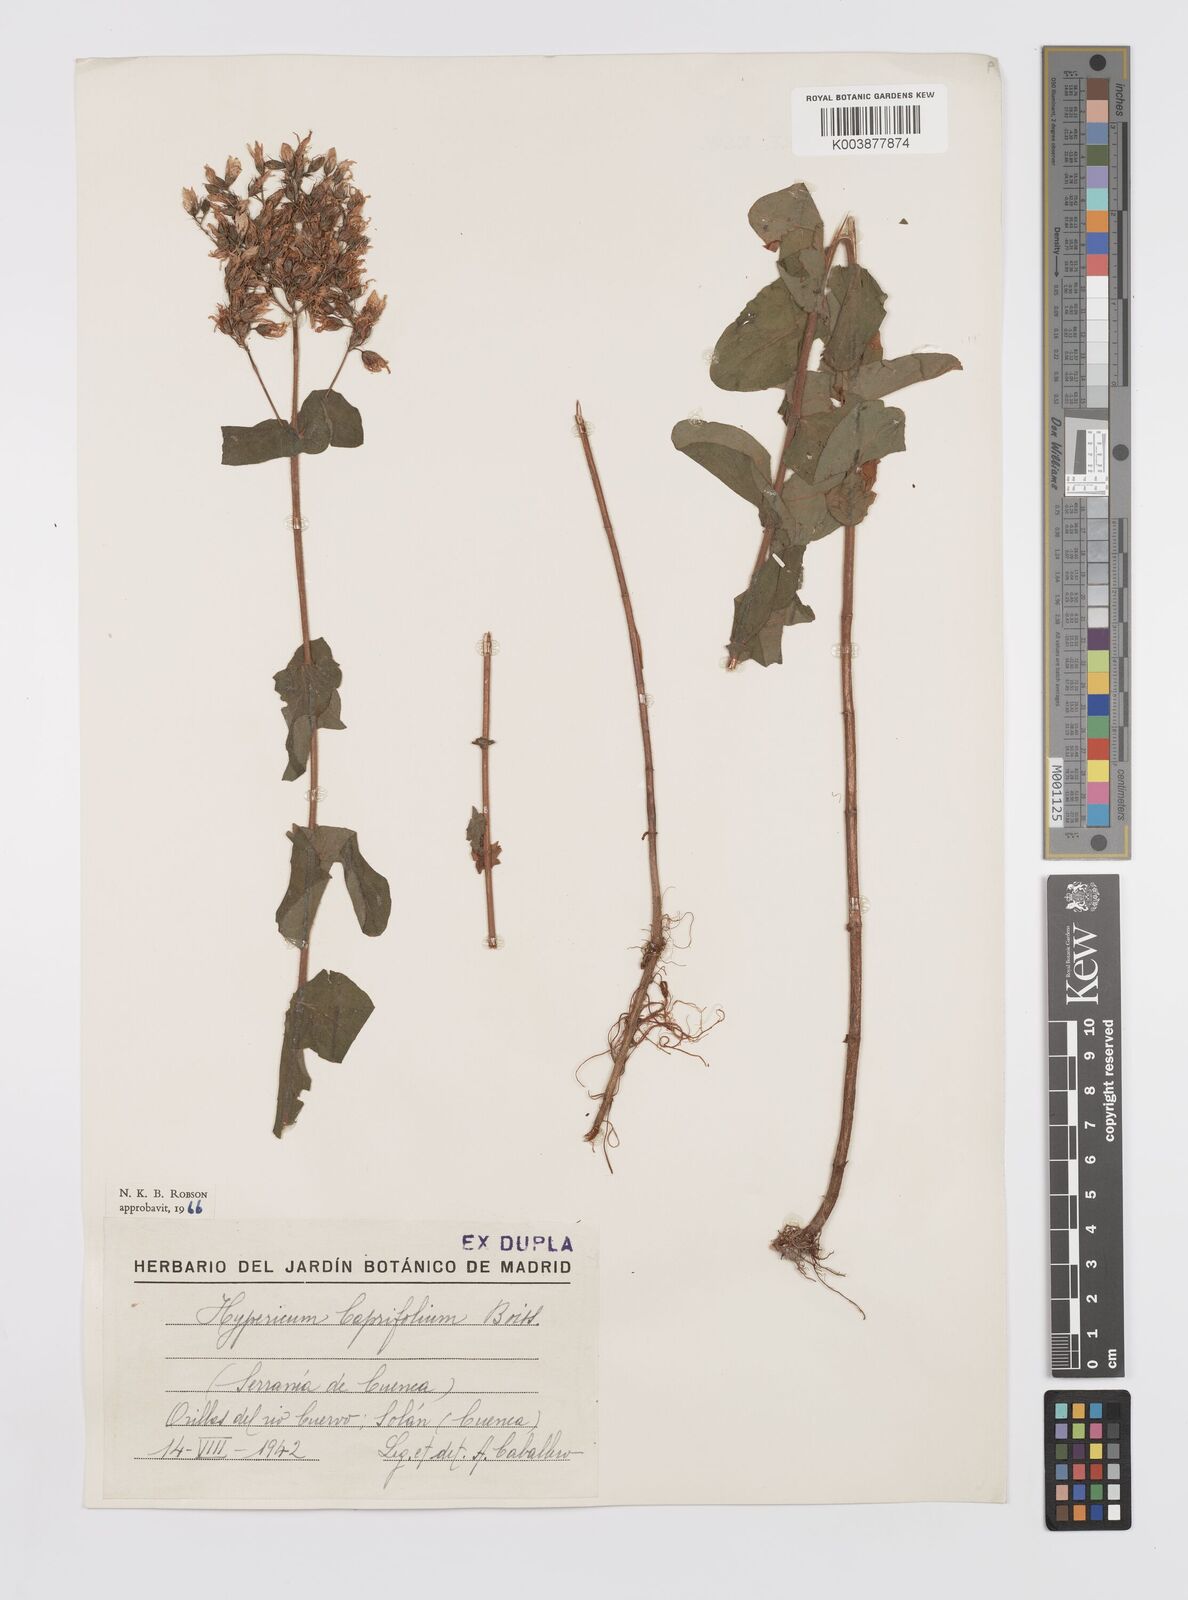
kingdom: Plantae
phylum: Tracheophyta
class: Magnoliopsida
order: Malpighiales
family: Hypericaceae
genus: Hypericum
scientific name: Hypericum caprifolium
